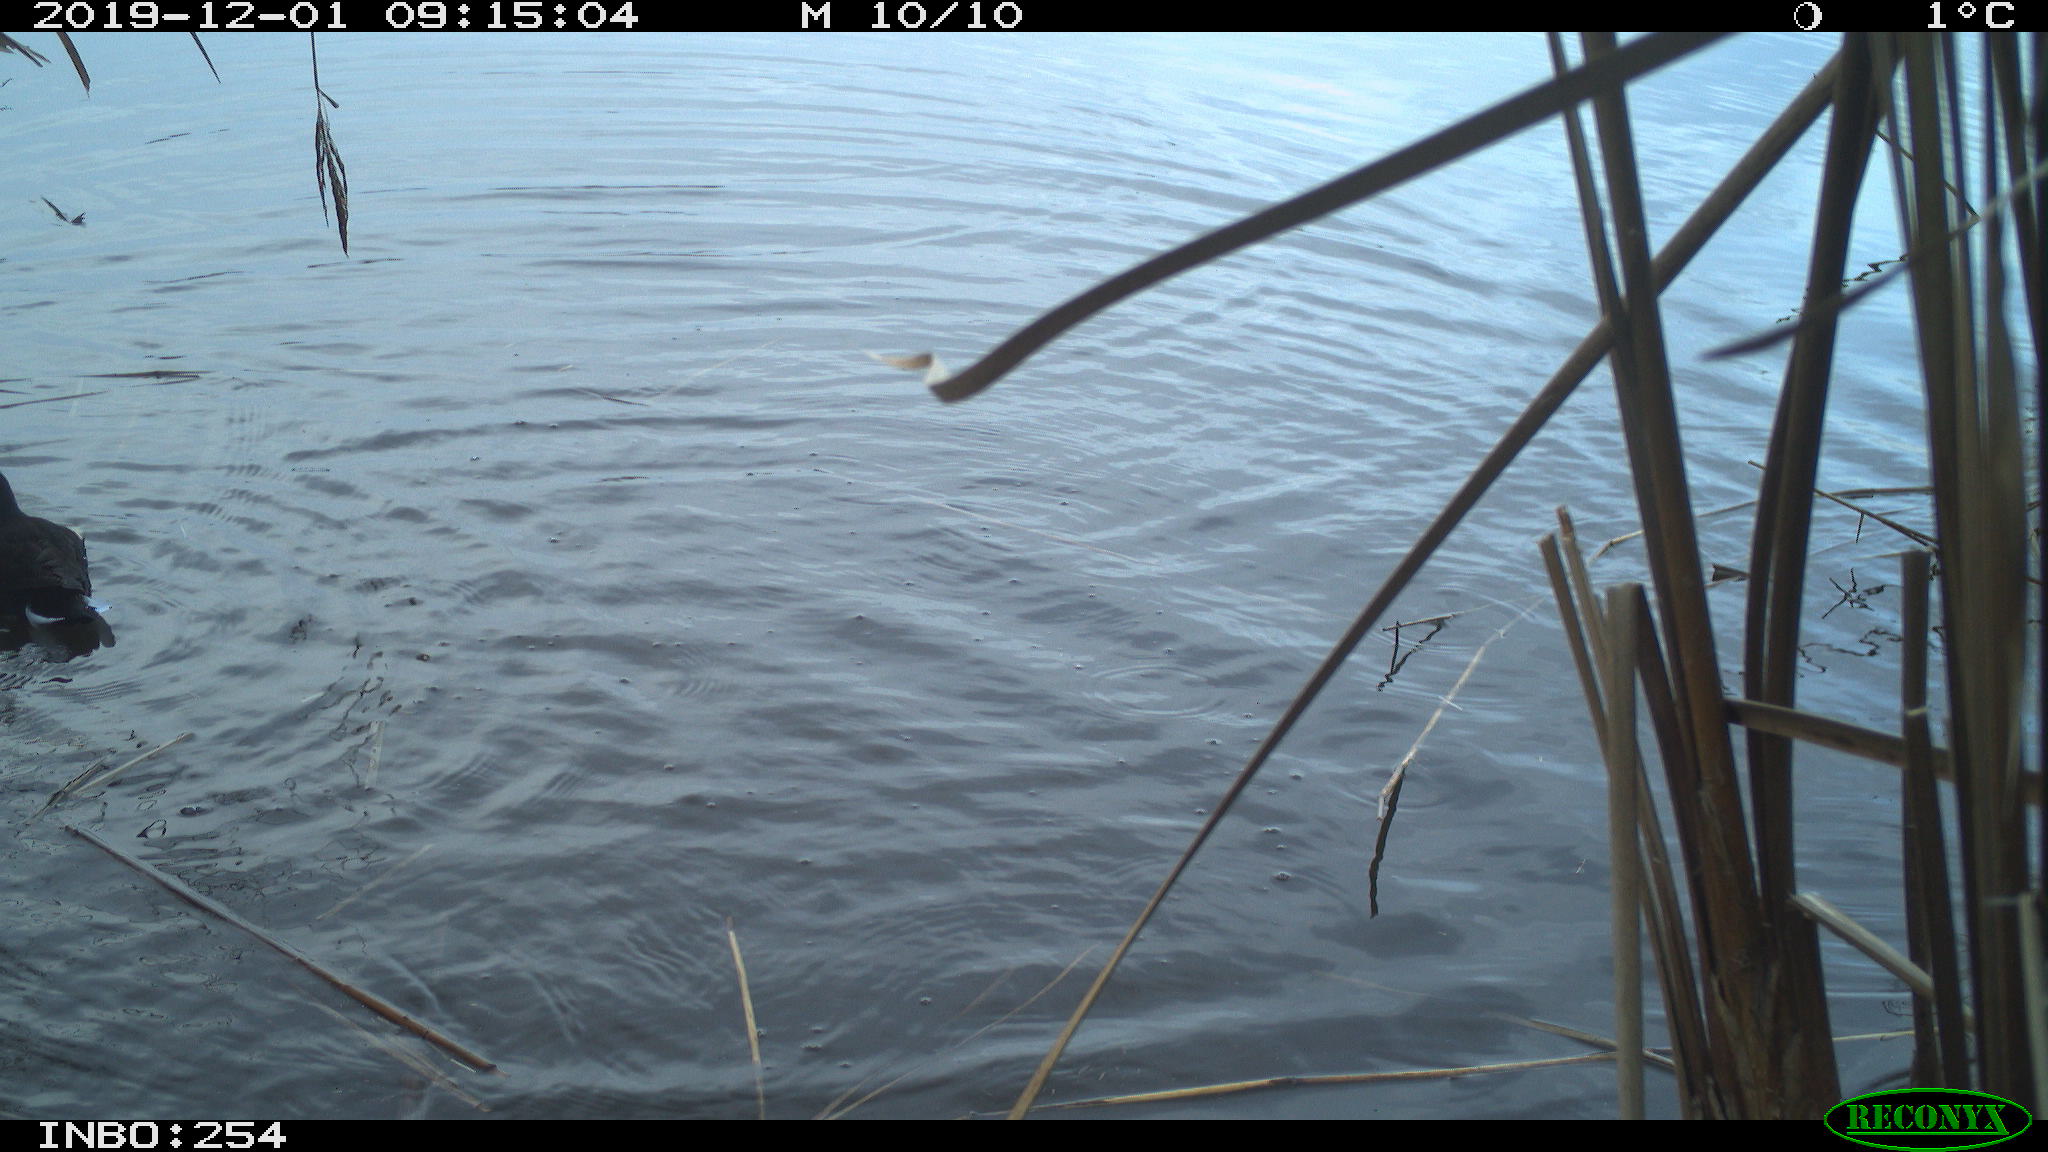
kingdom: Animalia
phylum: Chordata
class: Aves
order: Gruiformes
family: Rallidae
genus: Gallinula
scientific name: Gallinula chloropus
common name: Common moorhen
